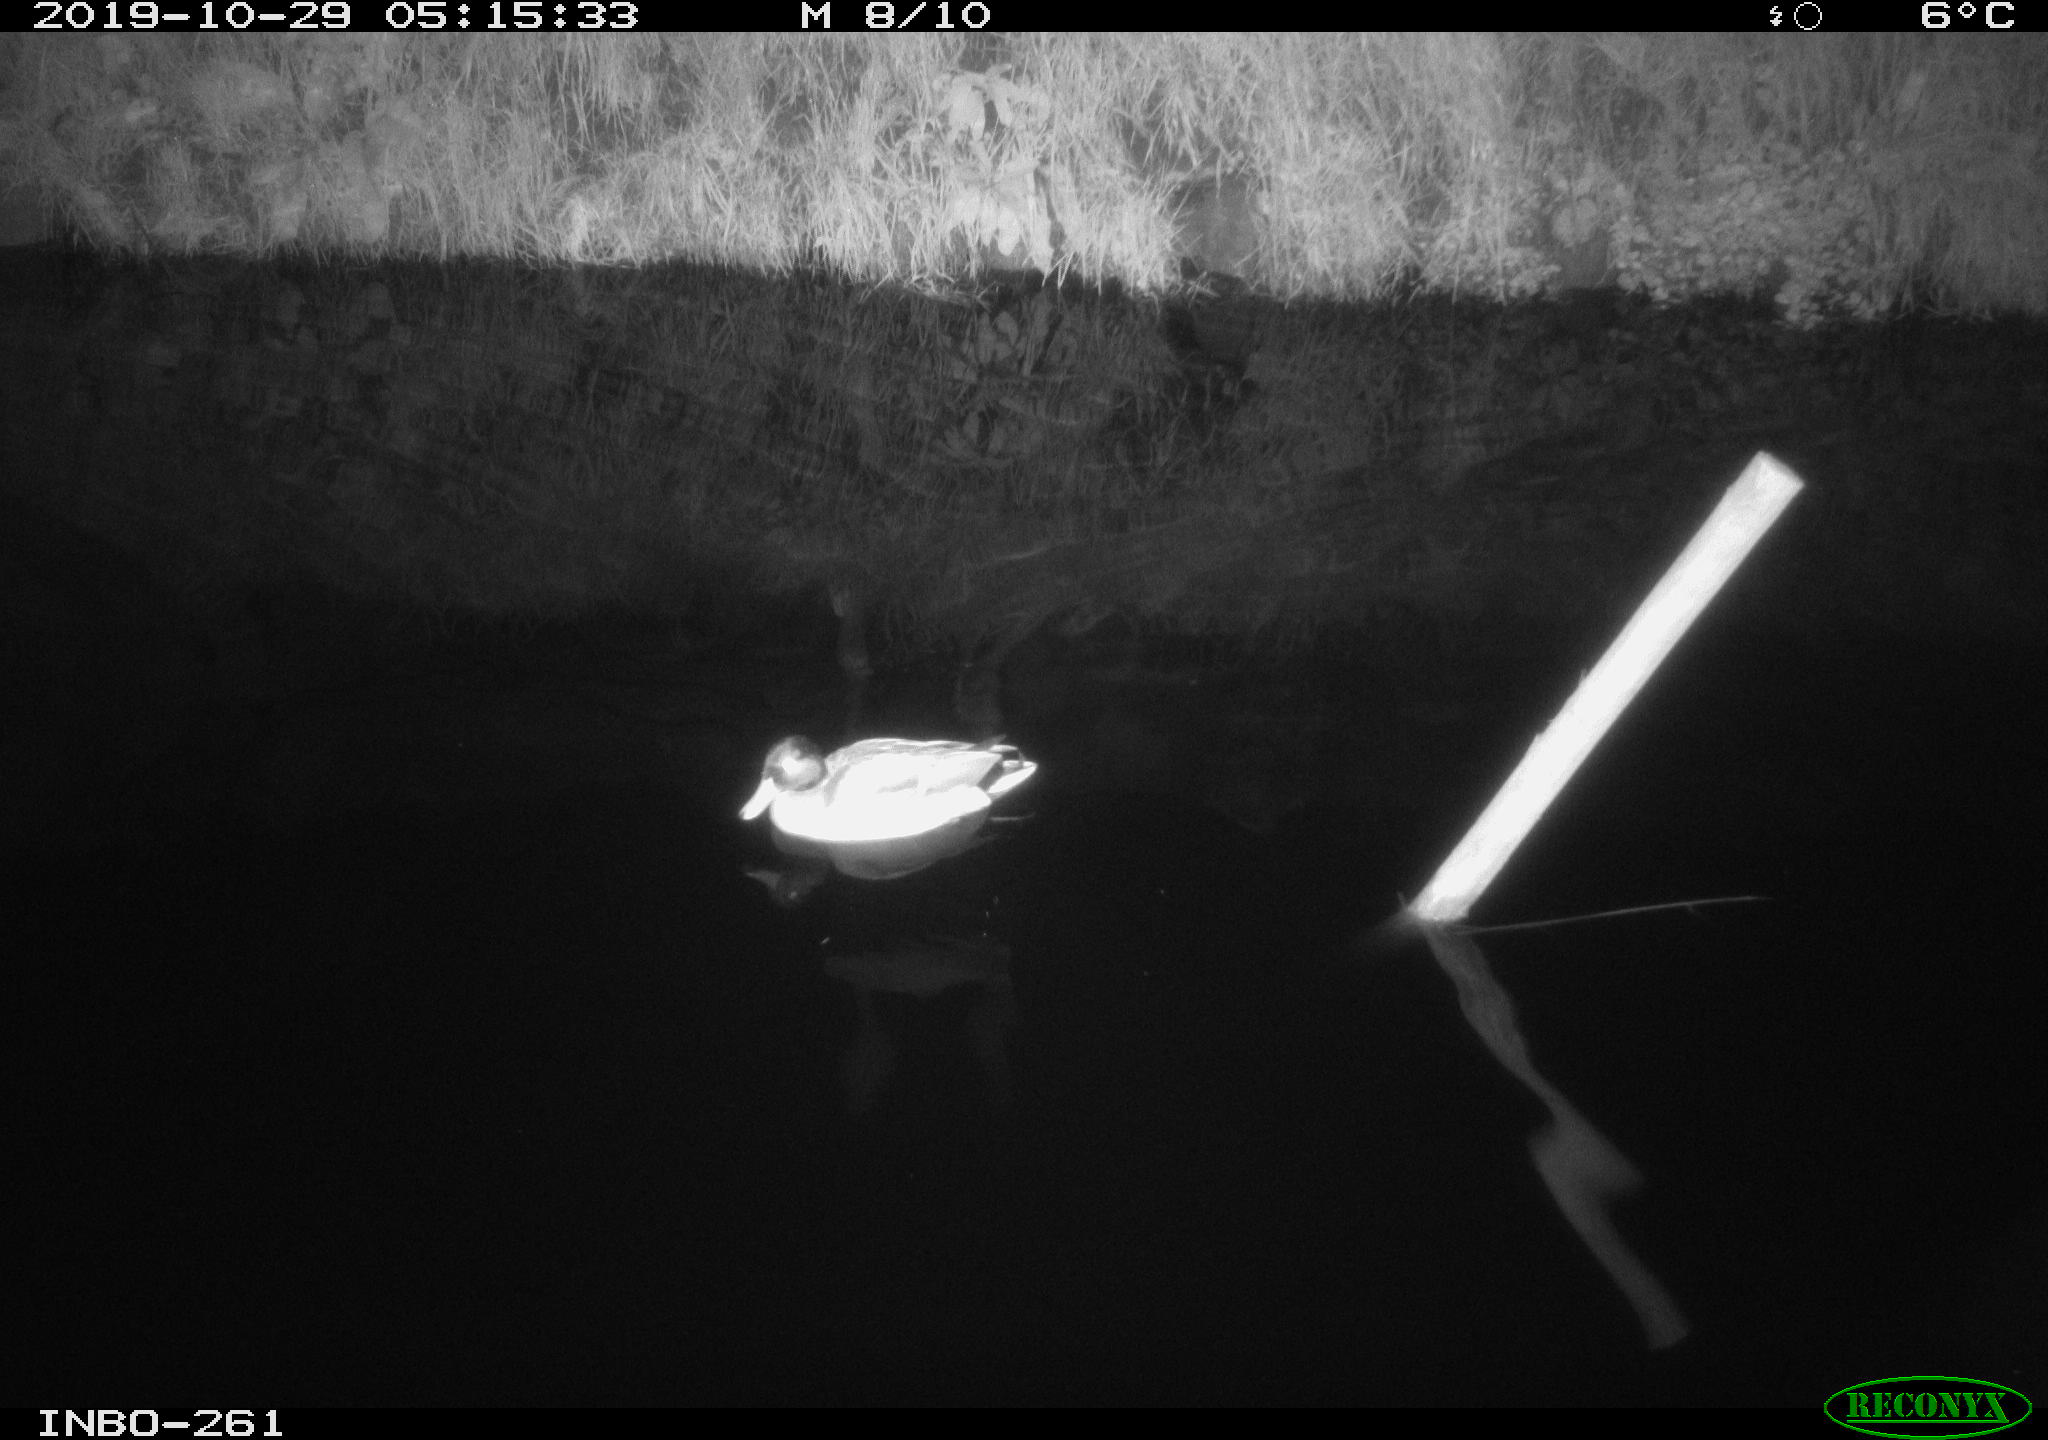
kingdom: Animalia
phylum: Chordata
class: Aves
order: Anseriformes
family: Anatidae
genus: Anas
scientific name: Anas platyrhynchos
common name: Mallard
